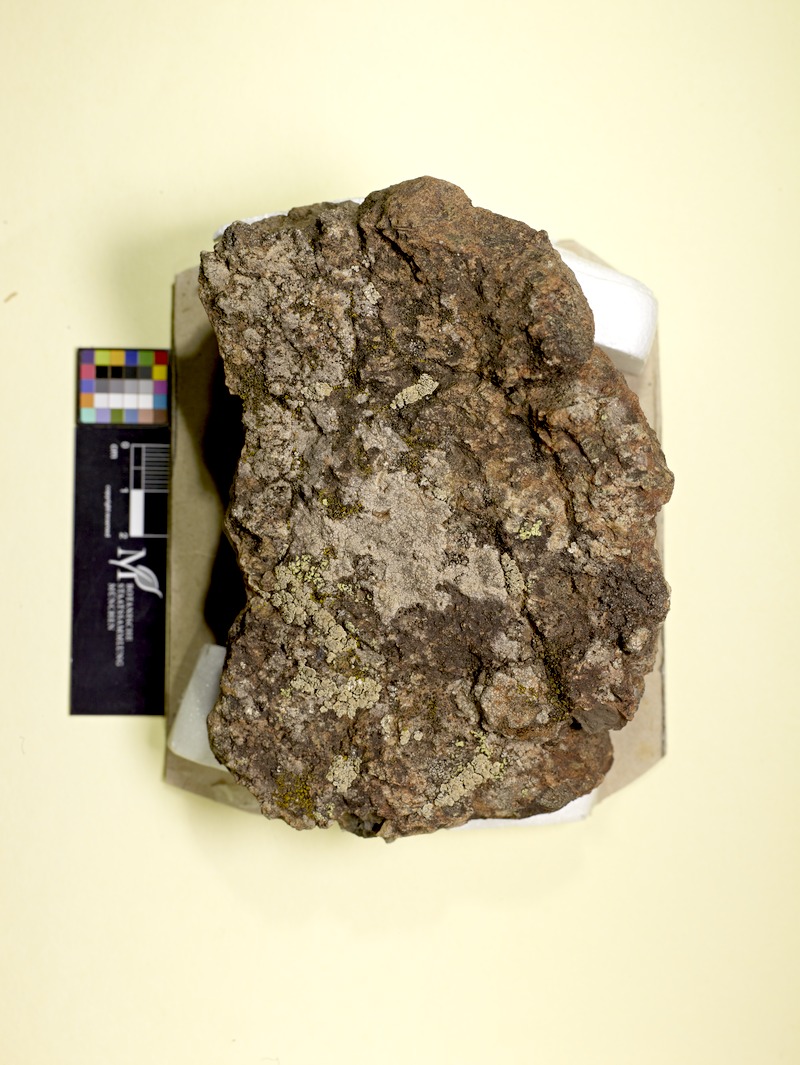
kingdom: Fungi
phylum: Ascomycota
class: Lecanoromycetes
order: Lecanorales
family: Stereocaulaceae
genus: Squamarina
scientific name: Squamarina serpentini
